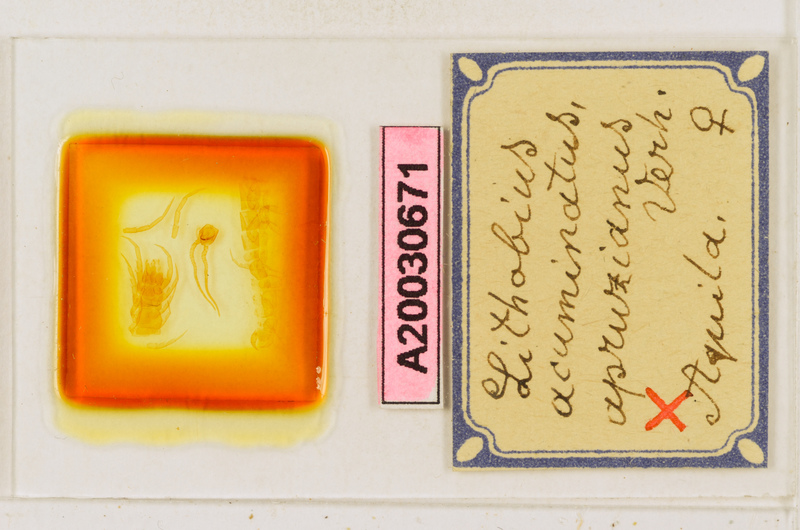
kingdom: Animalia
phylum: Arthropoda
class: Chilopoda
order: Lithobiomorpha
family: Lithobiidae
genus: Lithobius
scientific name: Lithobius acuminatus
